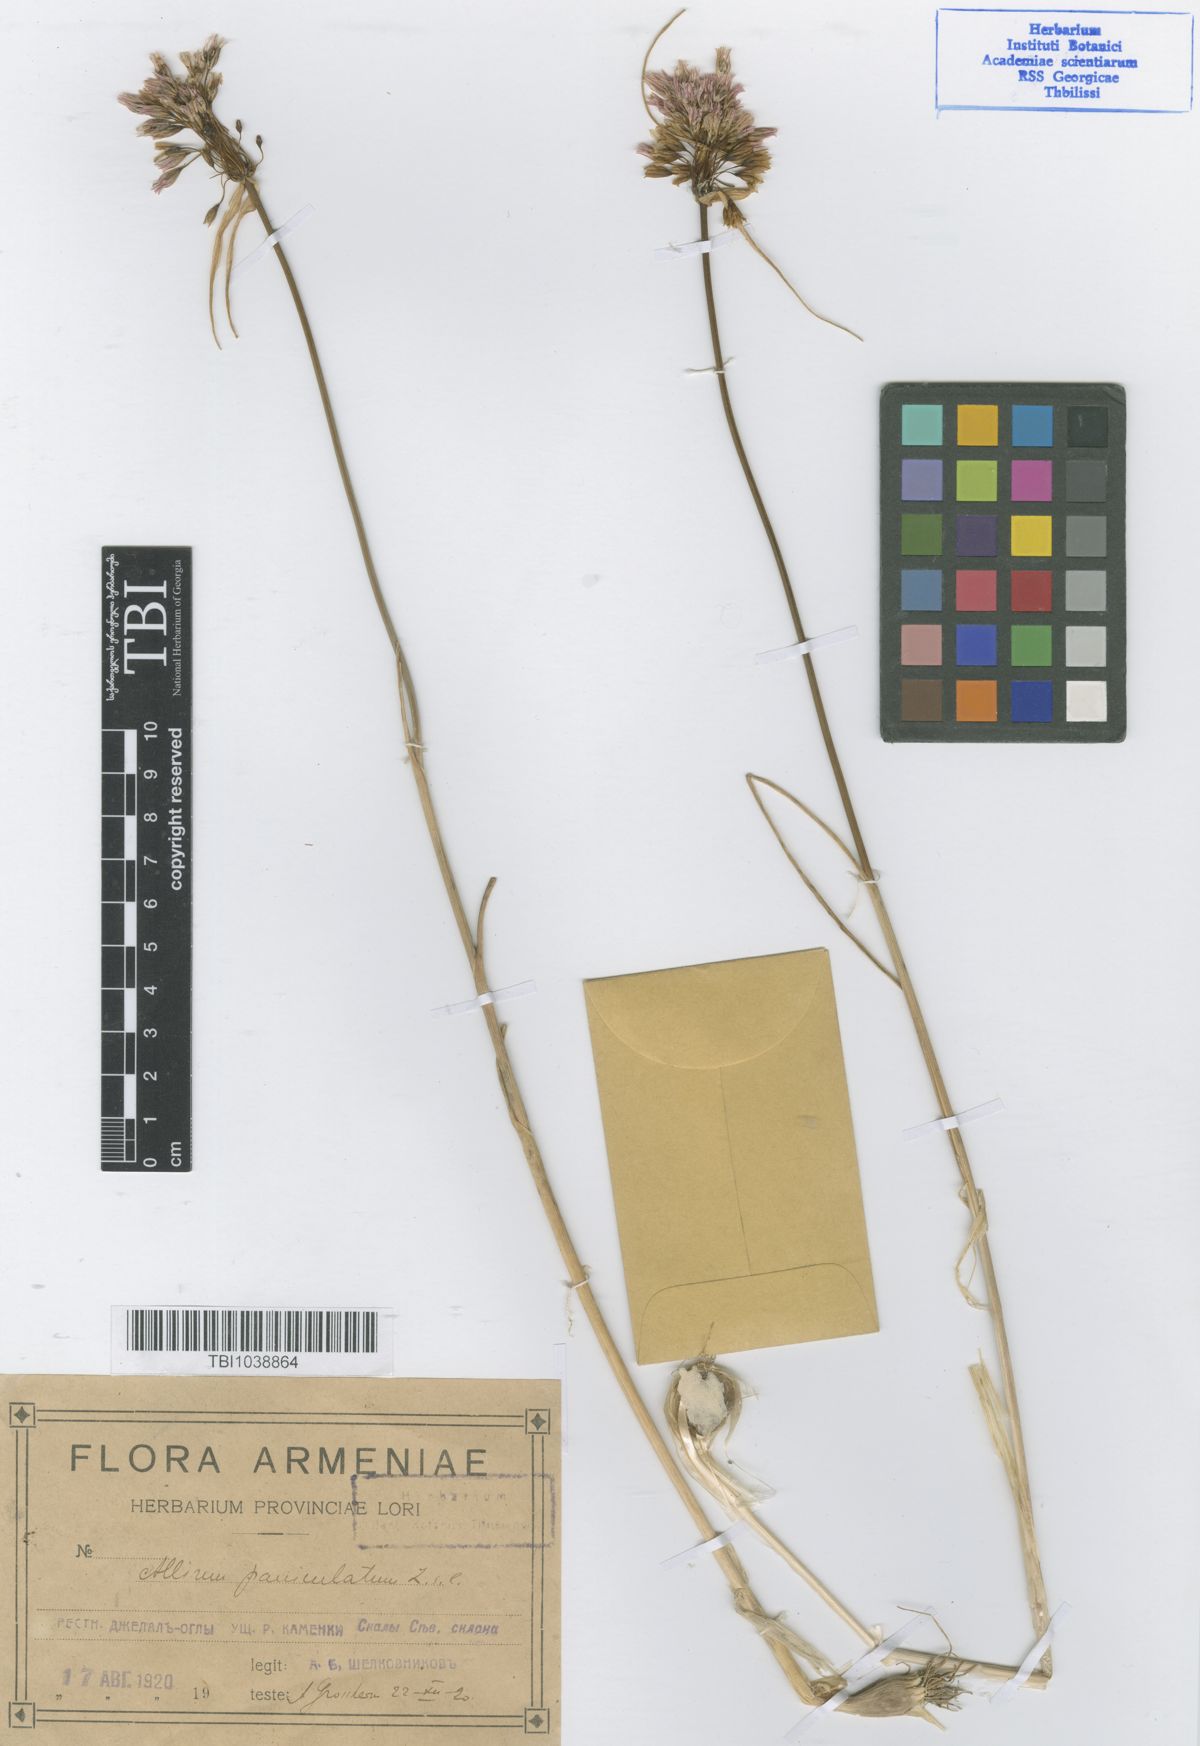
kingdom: Plantae
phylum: Tracheophyta
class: Liliopsida
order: Asparagales
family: Amaryllidaceae
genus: Allium
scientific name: Allium paniculatum
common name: Pale garlic
